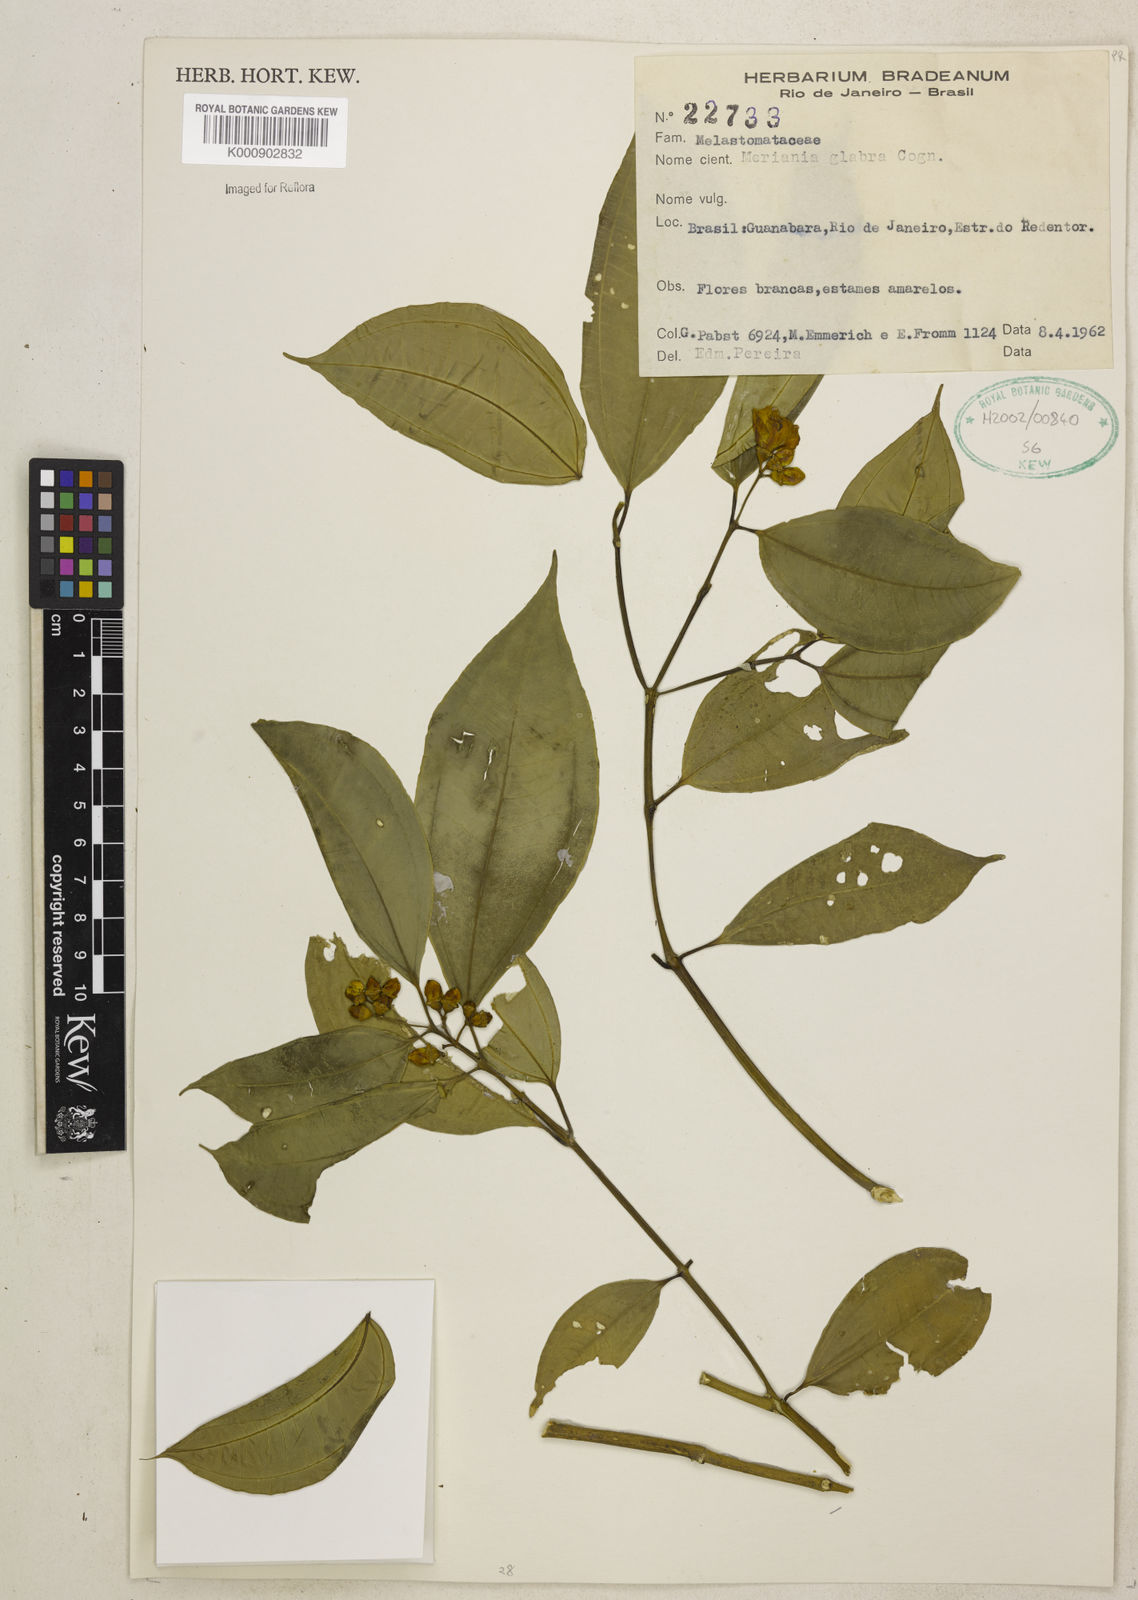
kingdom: Plantae
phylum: Tracheophyta
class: Magnoliopsida
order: Myrtales
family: Melastomataceae
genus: Meriania
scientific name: Meriania glabra
